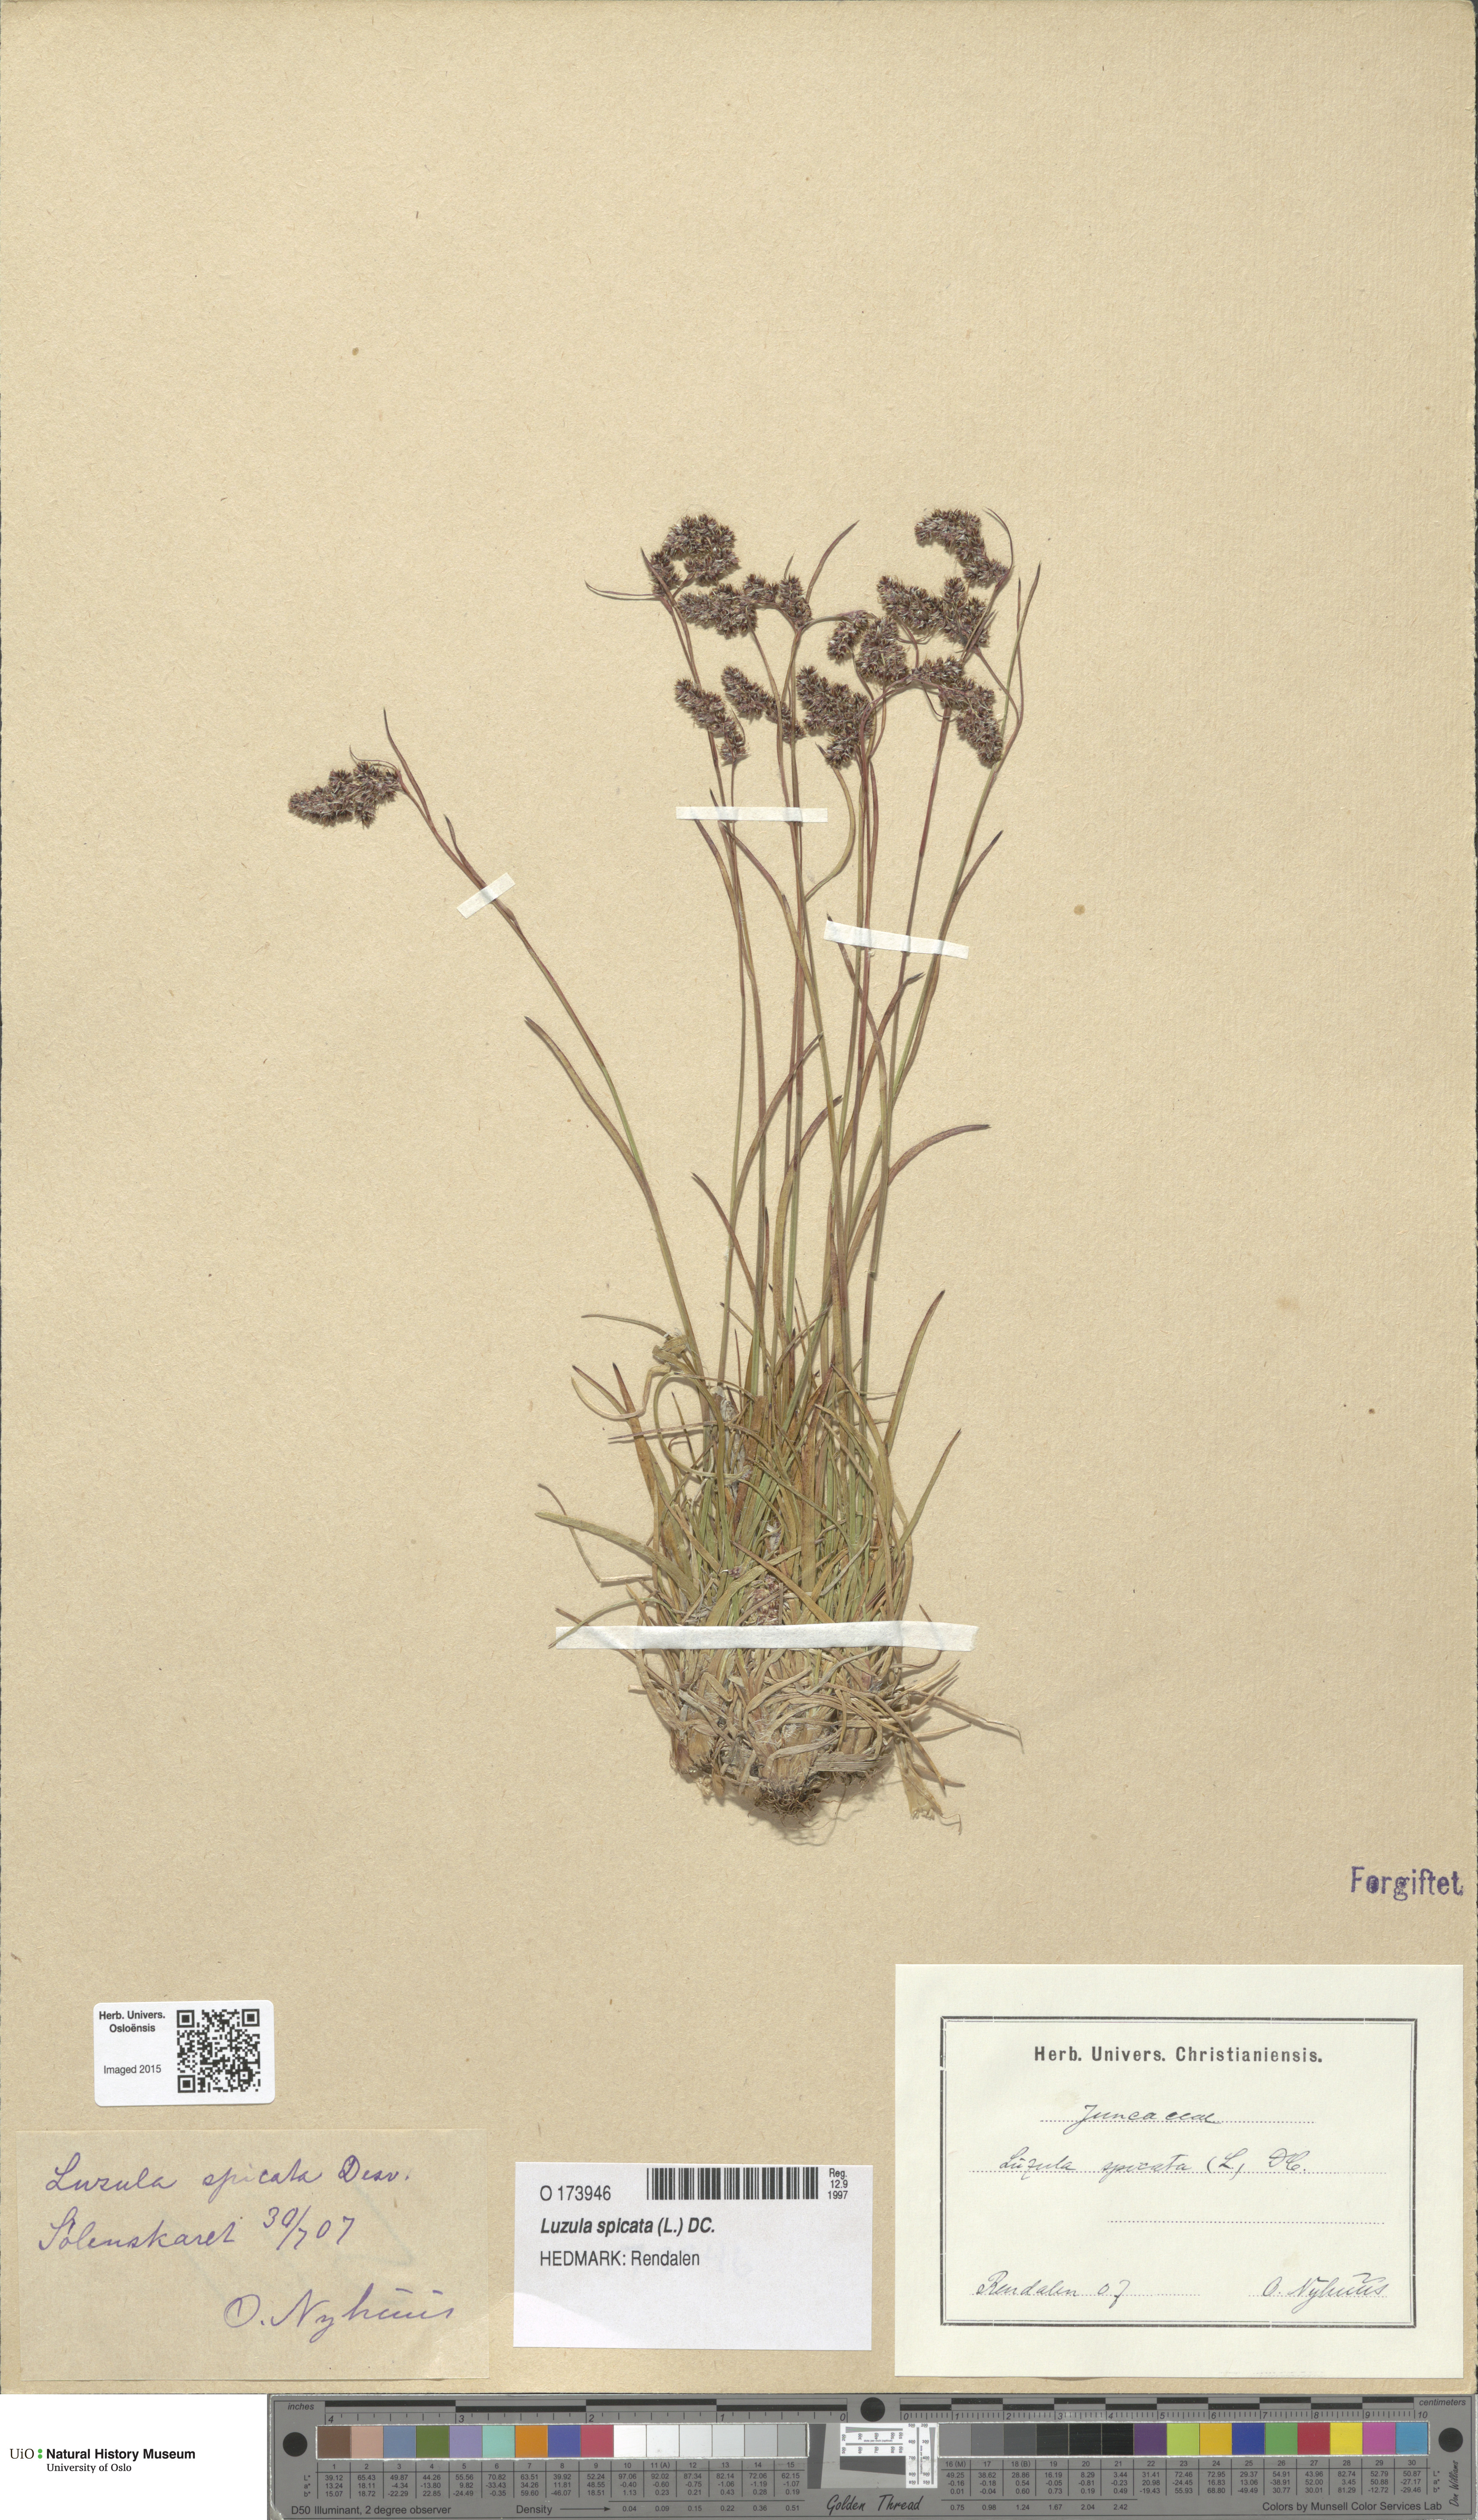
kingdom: Plantae
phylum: Tracheophyta
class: Liliopsida
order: Poales
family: Juncaceae
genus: Luzula
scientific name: Luzula spicata
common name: Spiked wood-rush
